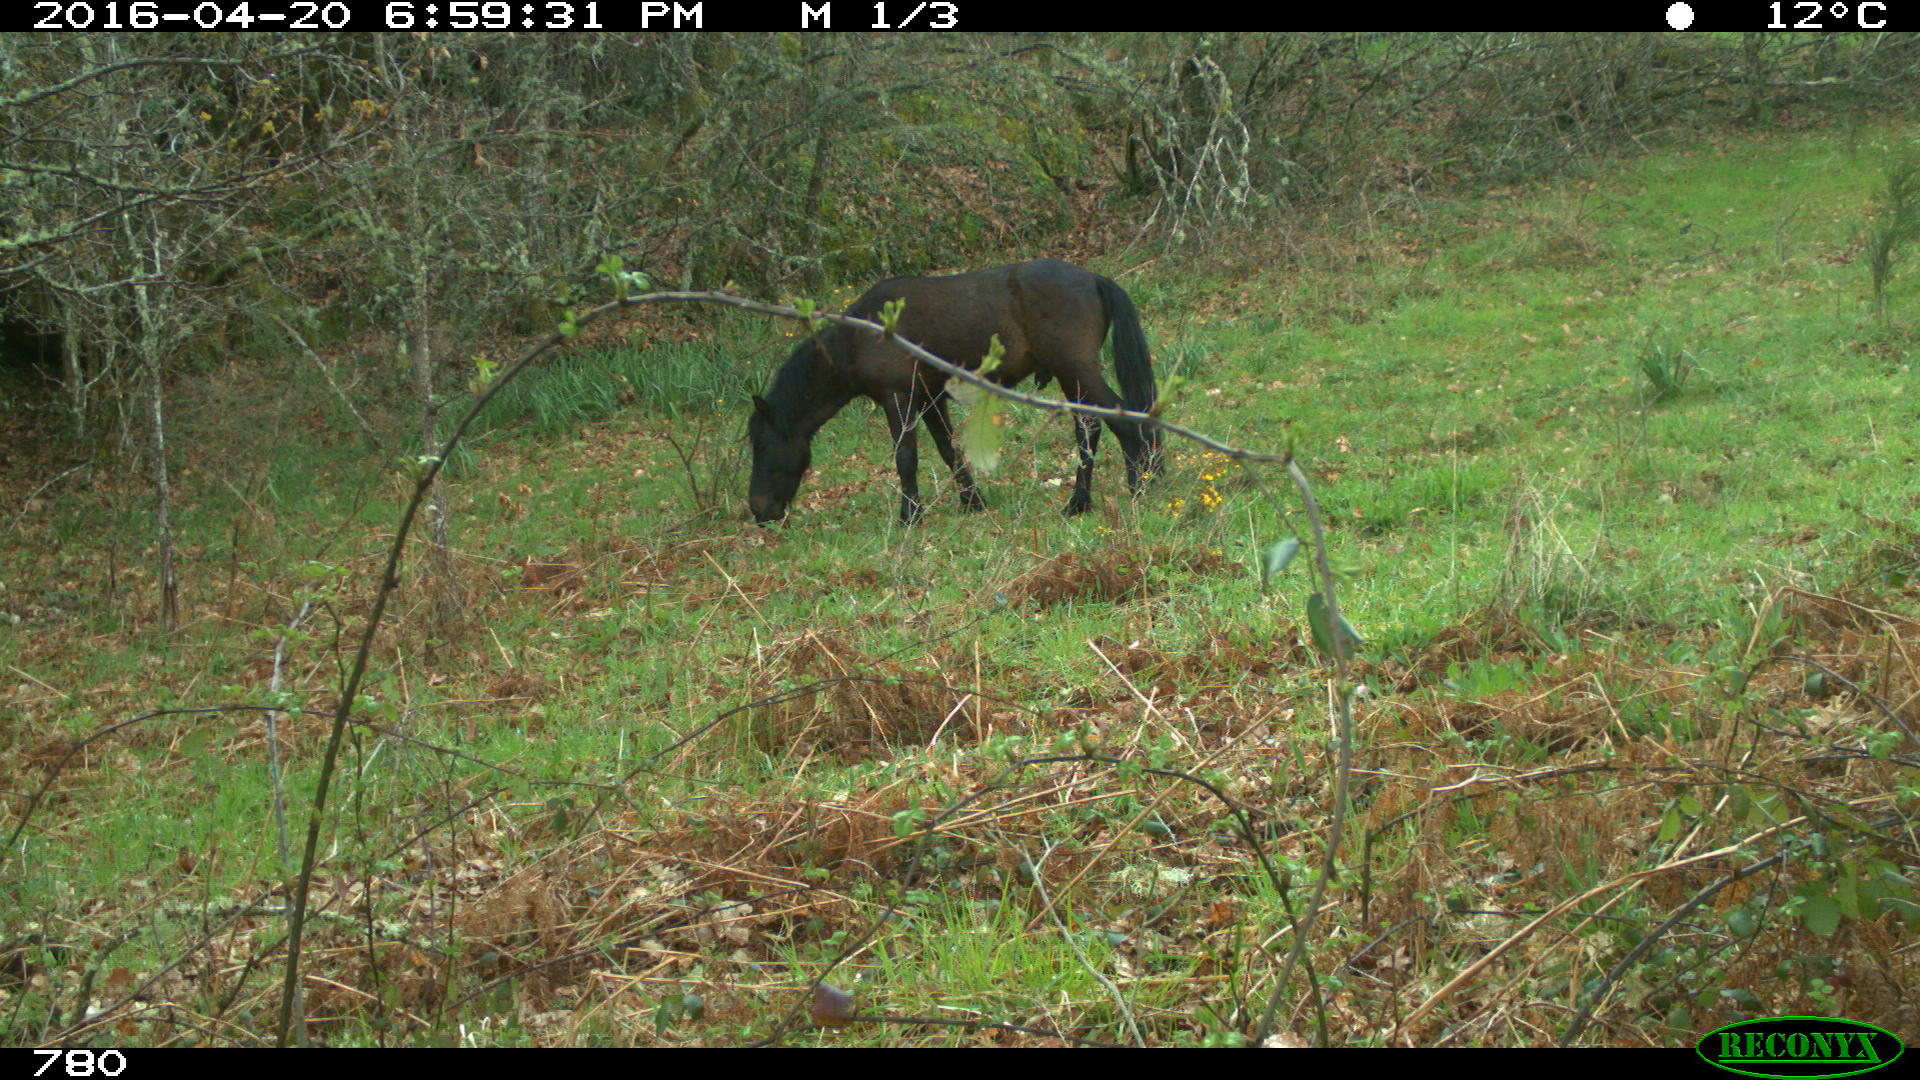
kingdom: Animalia
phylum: Chordata
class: Mammalia
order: Perissodactyla
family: Equidae
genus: Equus
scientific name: Equus caballus
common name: Horse
